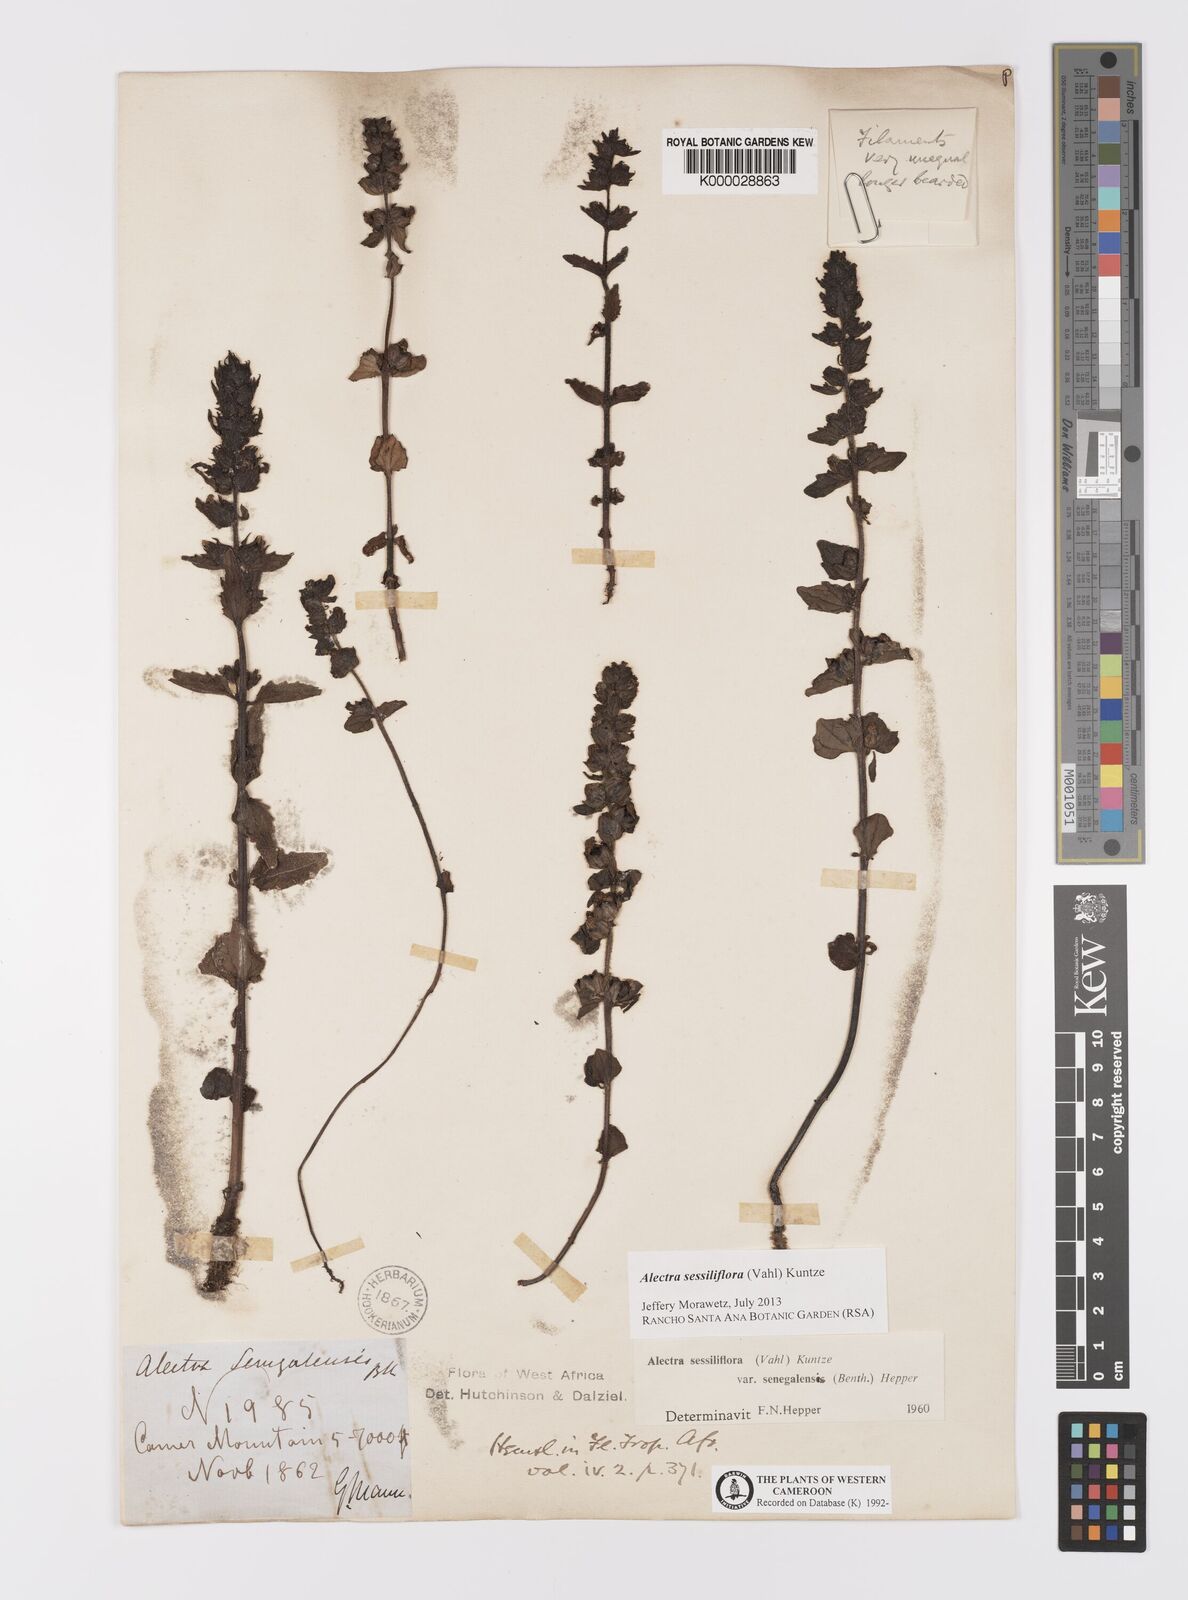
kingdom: Plantae
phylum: Tracheophyta
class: Magnoliopsida
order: Lamiales
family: Orobanchaceae
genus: Alectra
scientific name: Alectra sessiliflora
